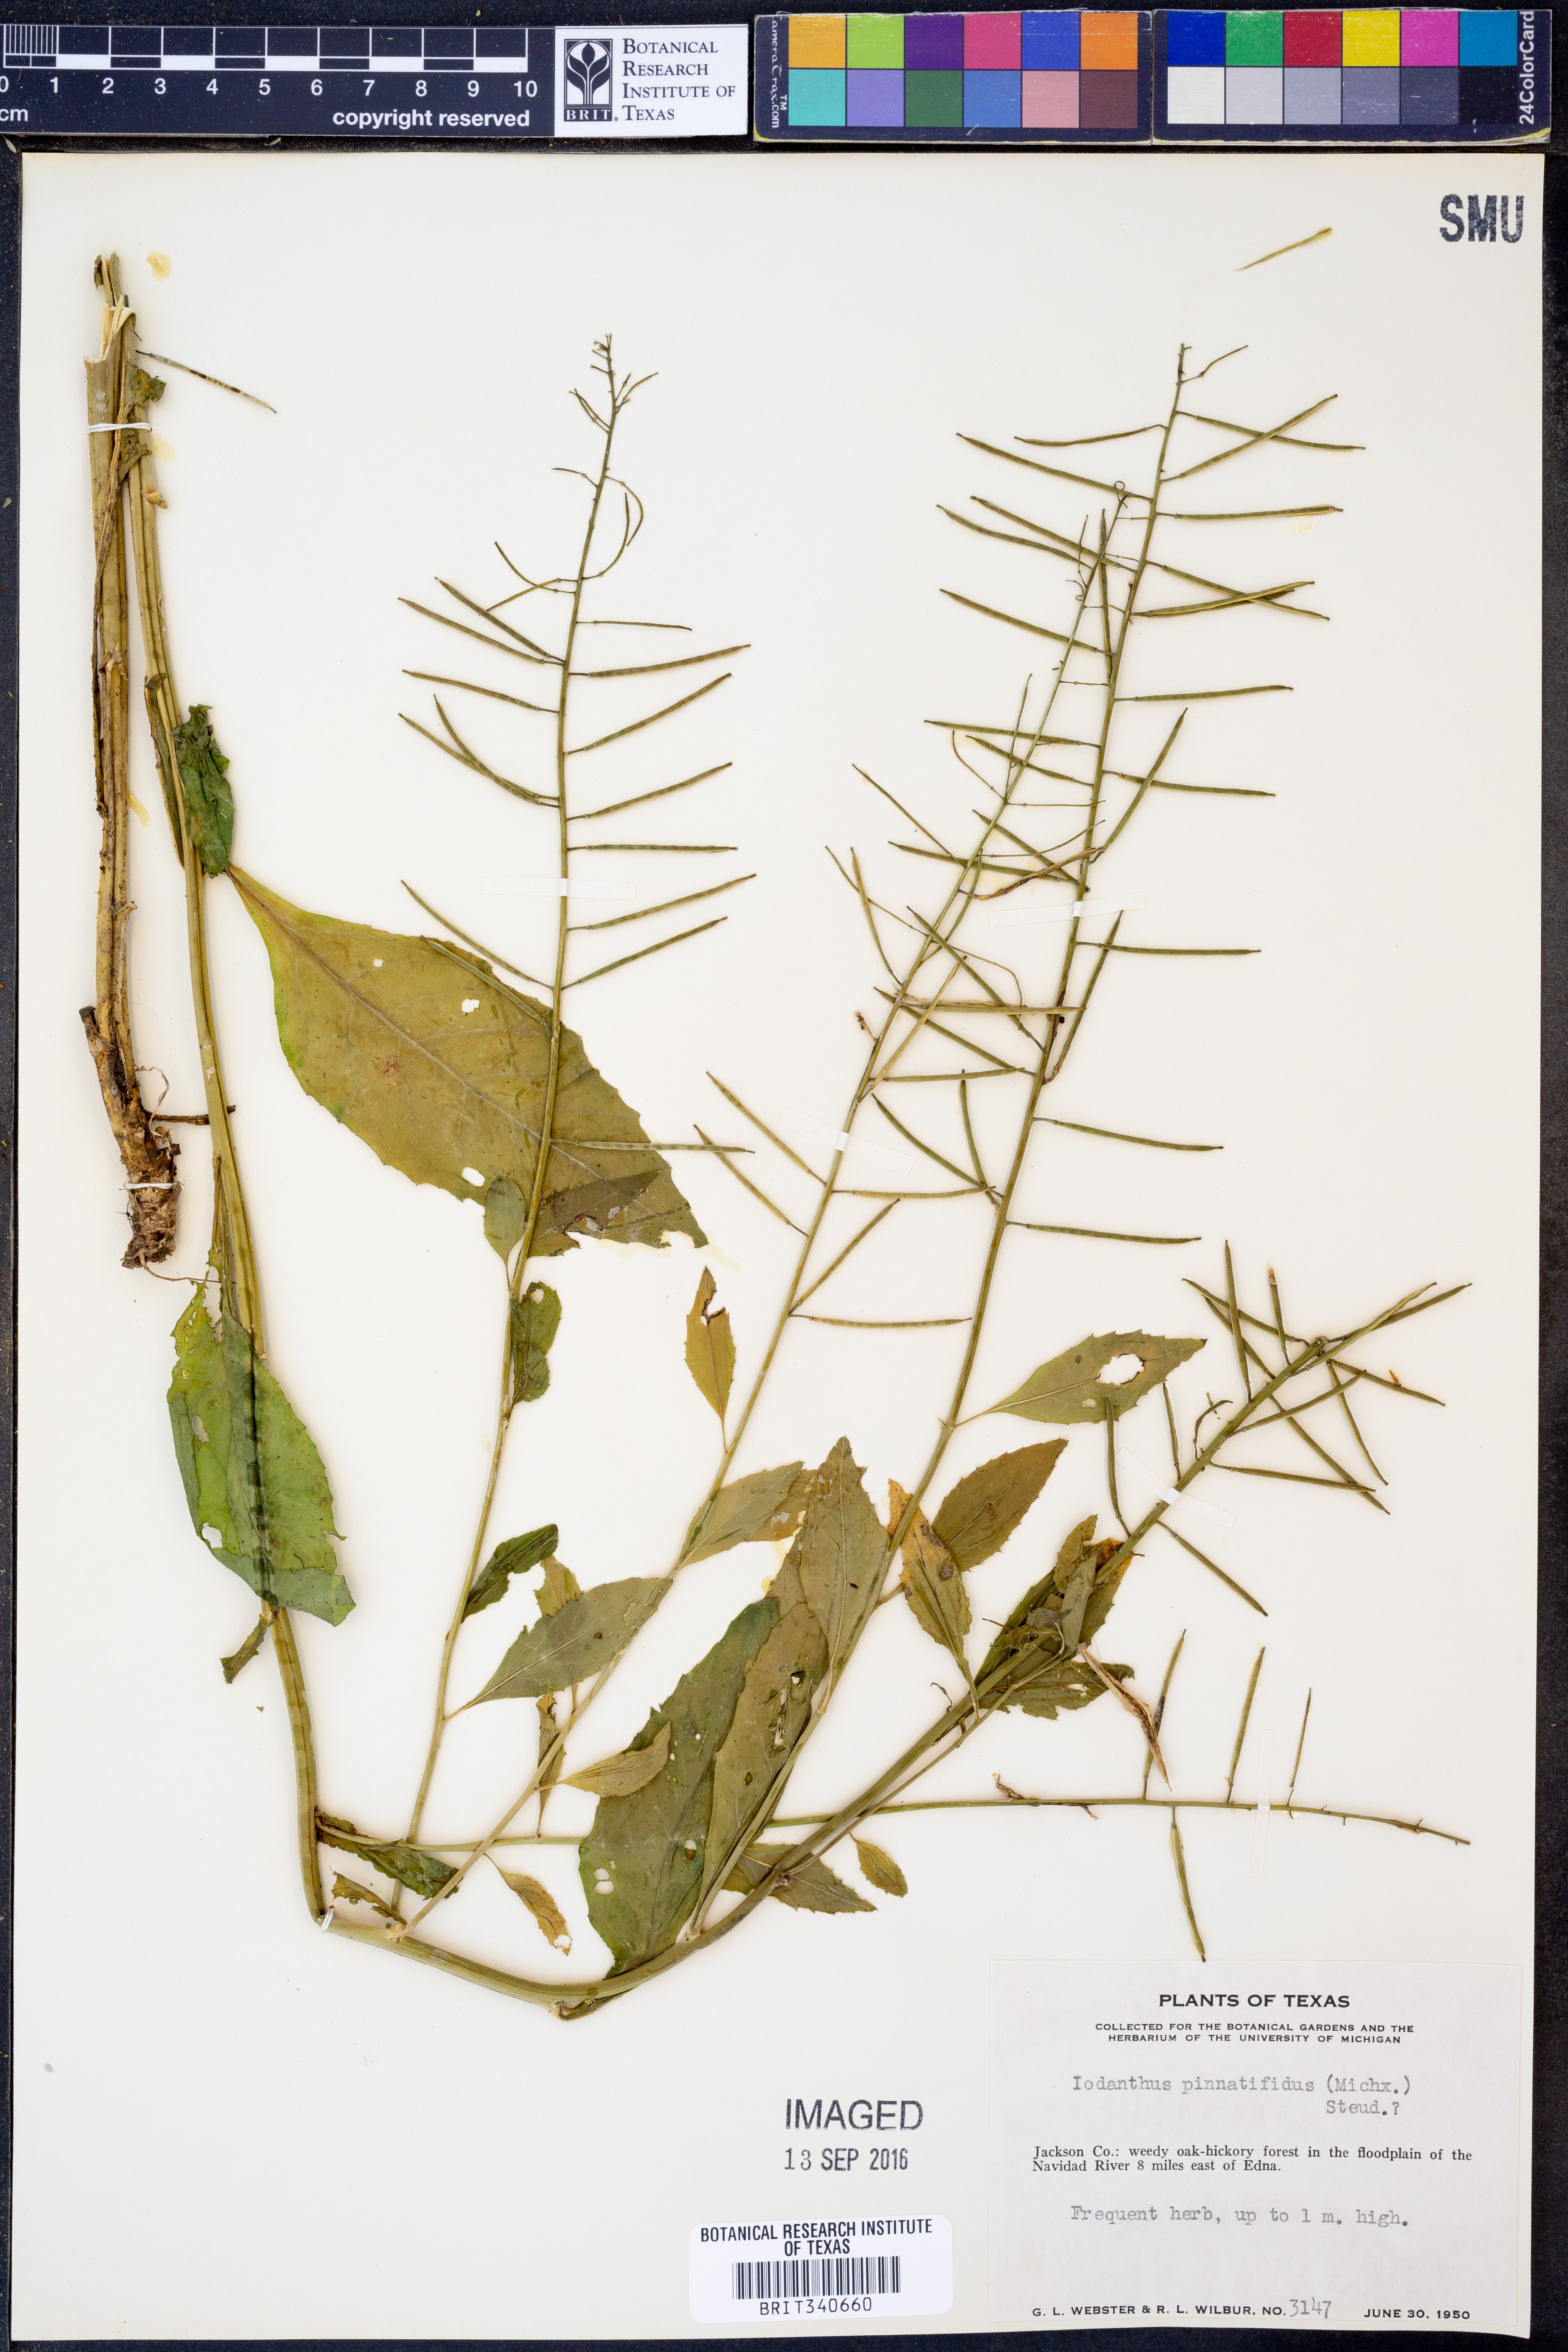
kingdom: Plantae
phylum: Tracheophyta
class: Magnoliopsida
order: Brassicales
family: Brassicaceae
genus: Iodanthus
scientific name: Iodanthus pinnatifidus
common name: Violet rocket
